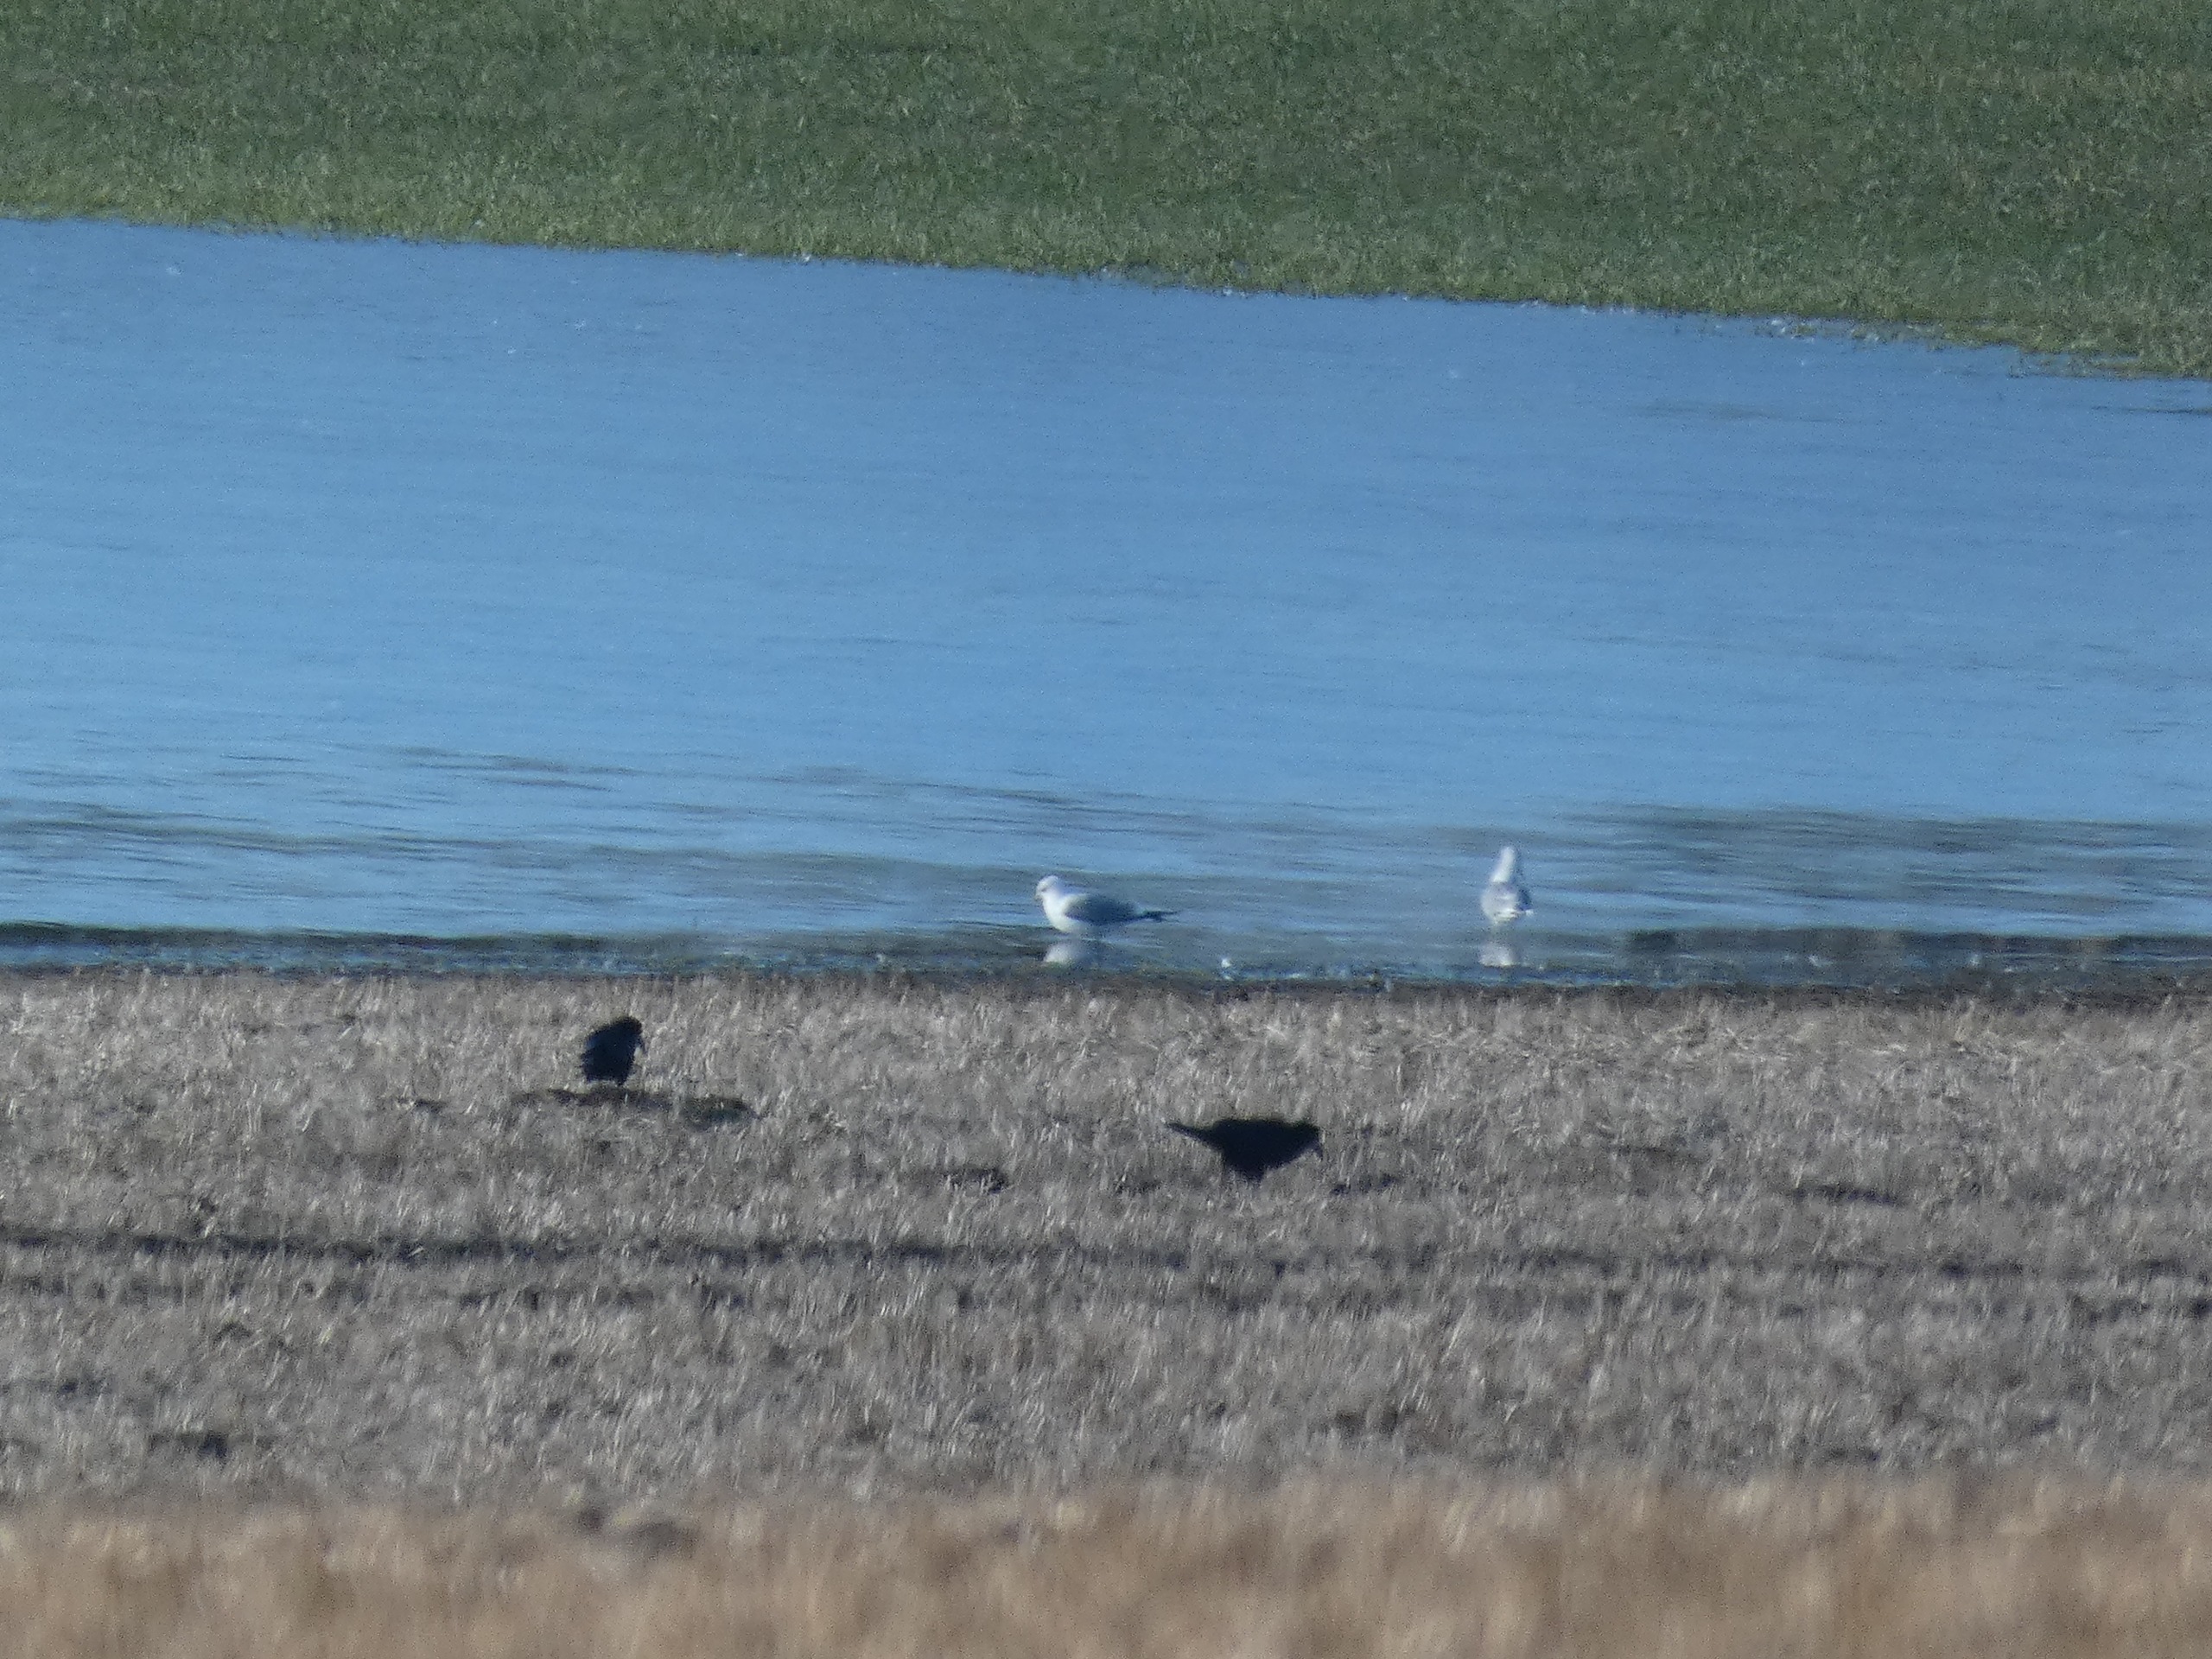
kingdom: Animalia
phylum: Chordata
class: Aves
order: Passeriformes
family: Corvidae
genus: Corvus
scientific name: Corvus frugilegus
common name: Råge
